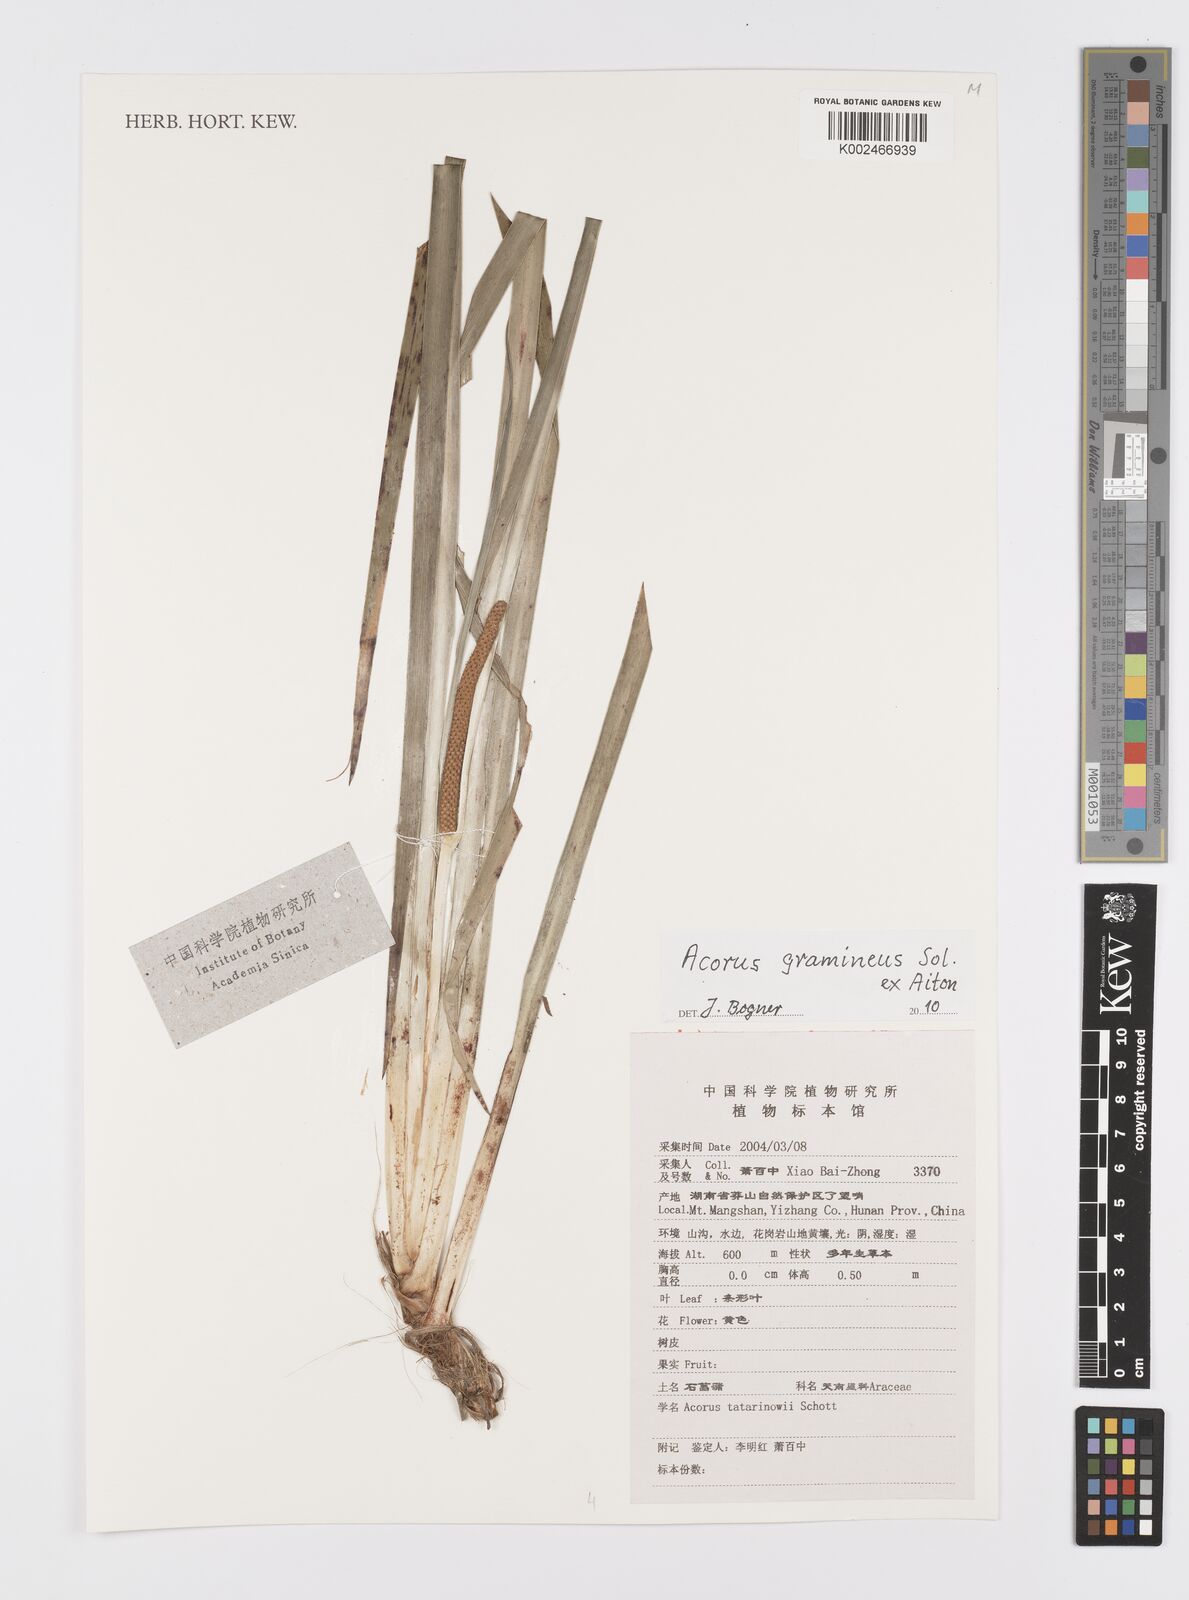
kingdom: Plantae
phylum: Tracheophyta
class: Liliopsida
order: Acorales
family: Acoraceae
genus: Acorus
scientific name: Acorus gramineus
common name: Slender sweet-flag
